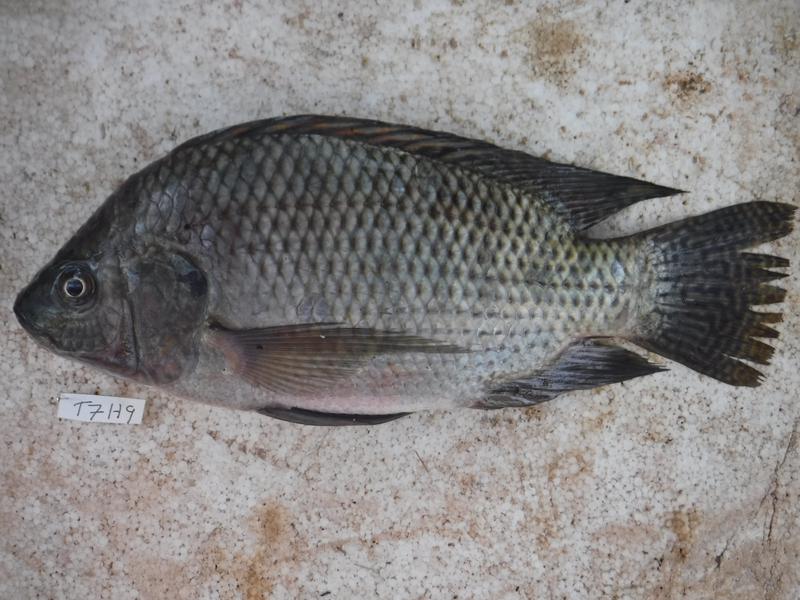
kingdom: Animalia
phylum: Chordata
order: Perciformes
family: Cichlidae
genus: Oreochromis
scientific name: Oreochromis niloticus
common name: Nile tilapia
